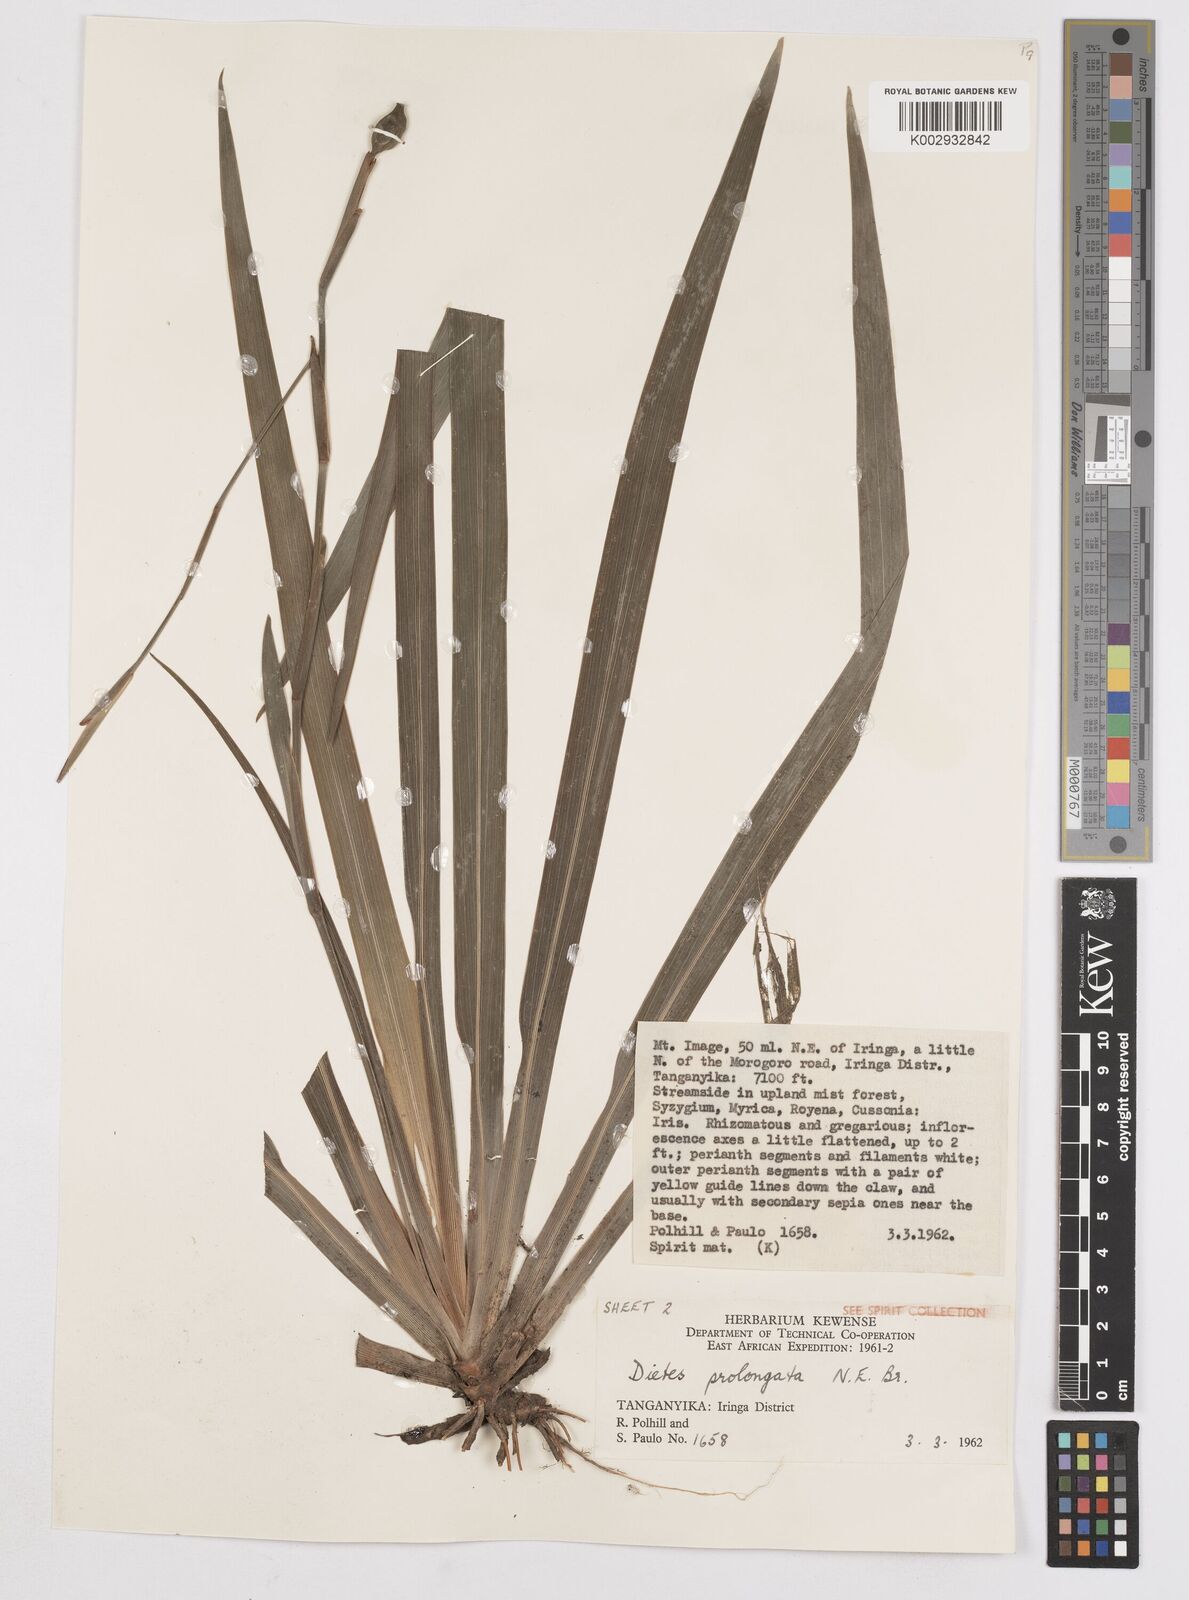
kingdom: Plantae
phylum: Tracheophyta
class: Liliopsida
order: Asparagales
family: Iridaceae
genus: Dietes
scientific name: Dietes iridioides
